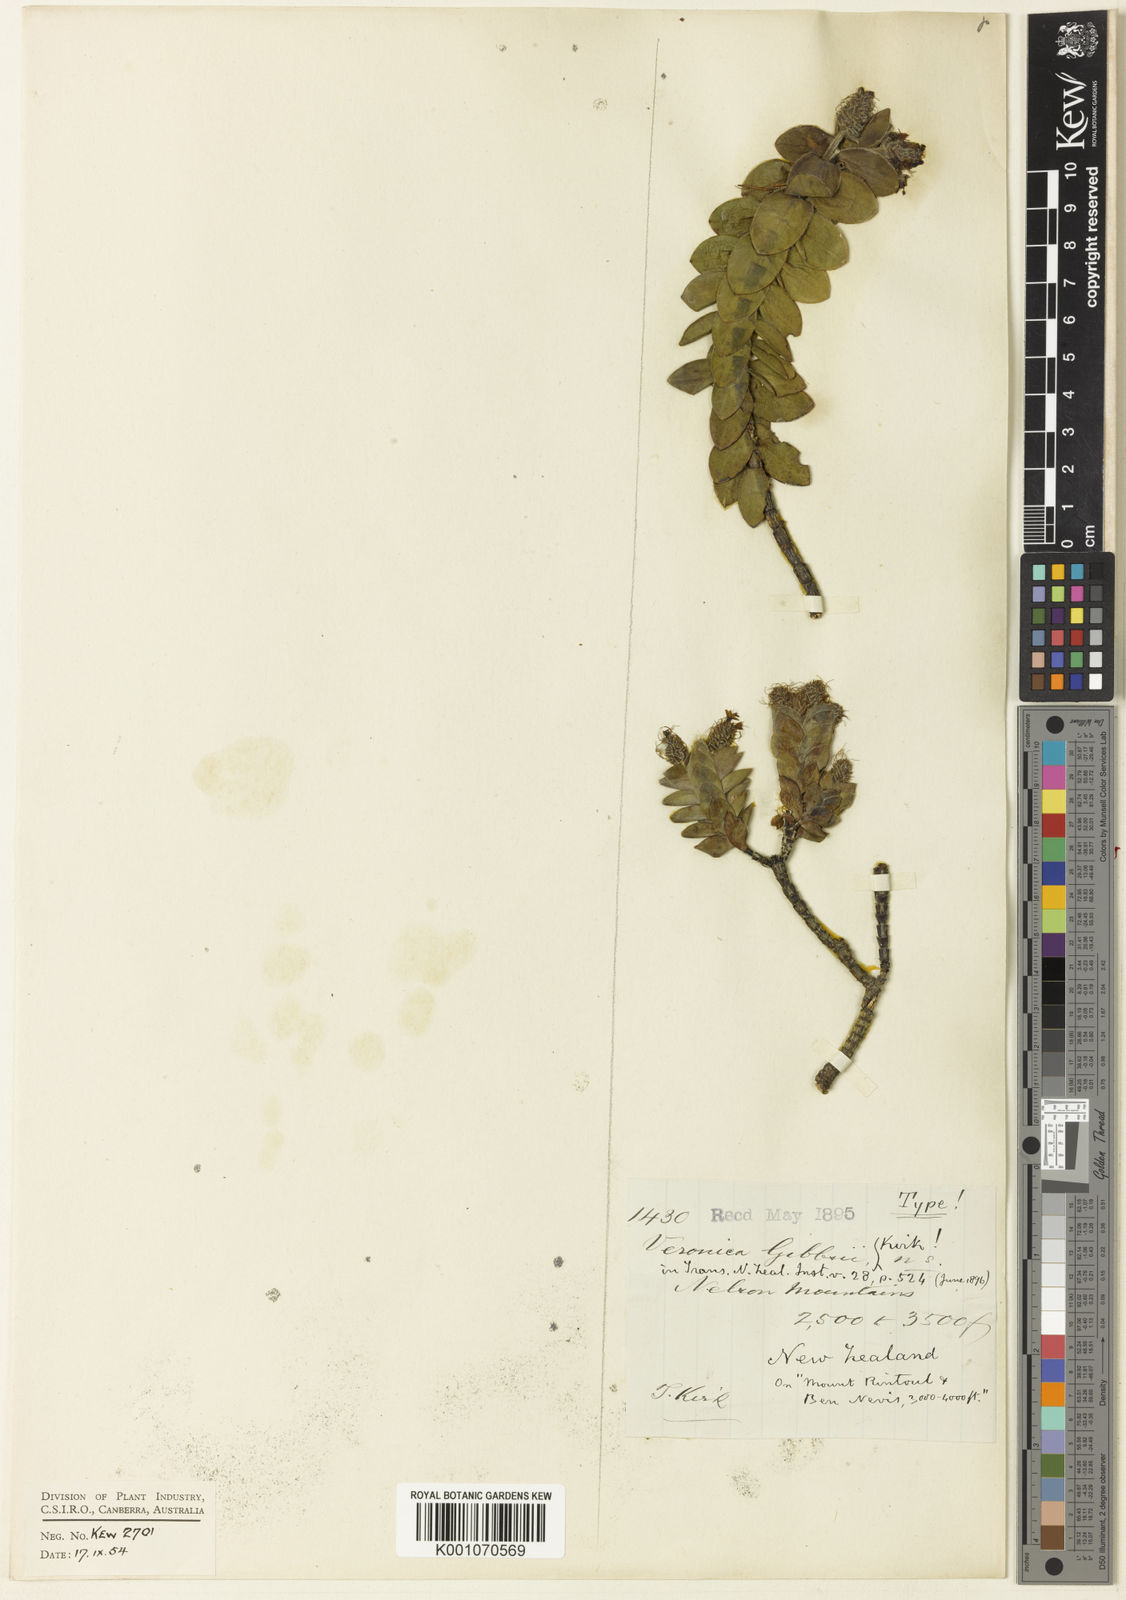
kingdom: Plantae
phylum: Tracheophyta
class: Magnoliopsida
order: Lamiales
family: Plantaginaceae
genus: Veronica
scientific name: Veronica gibbsii
